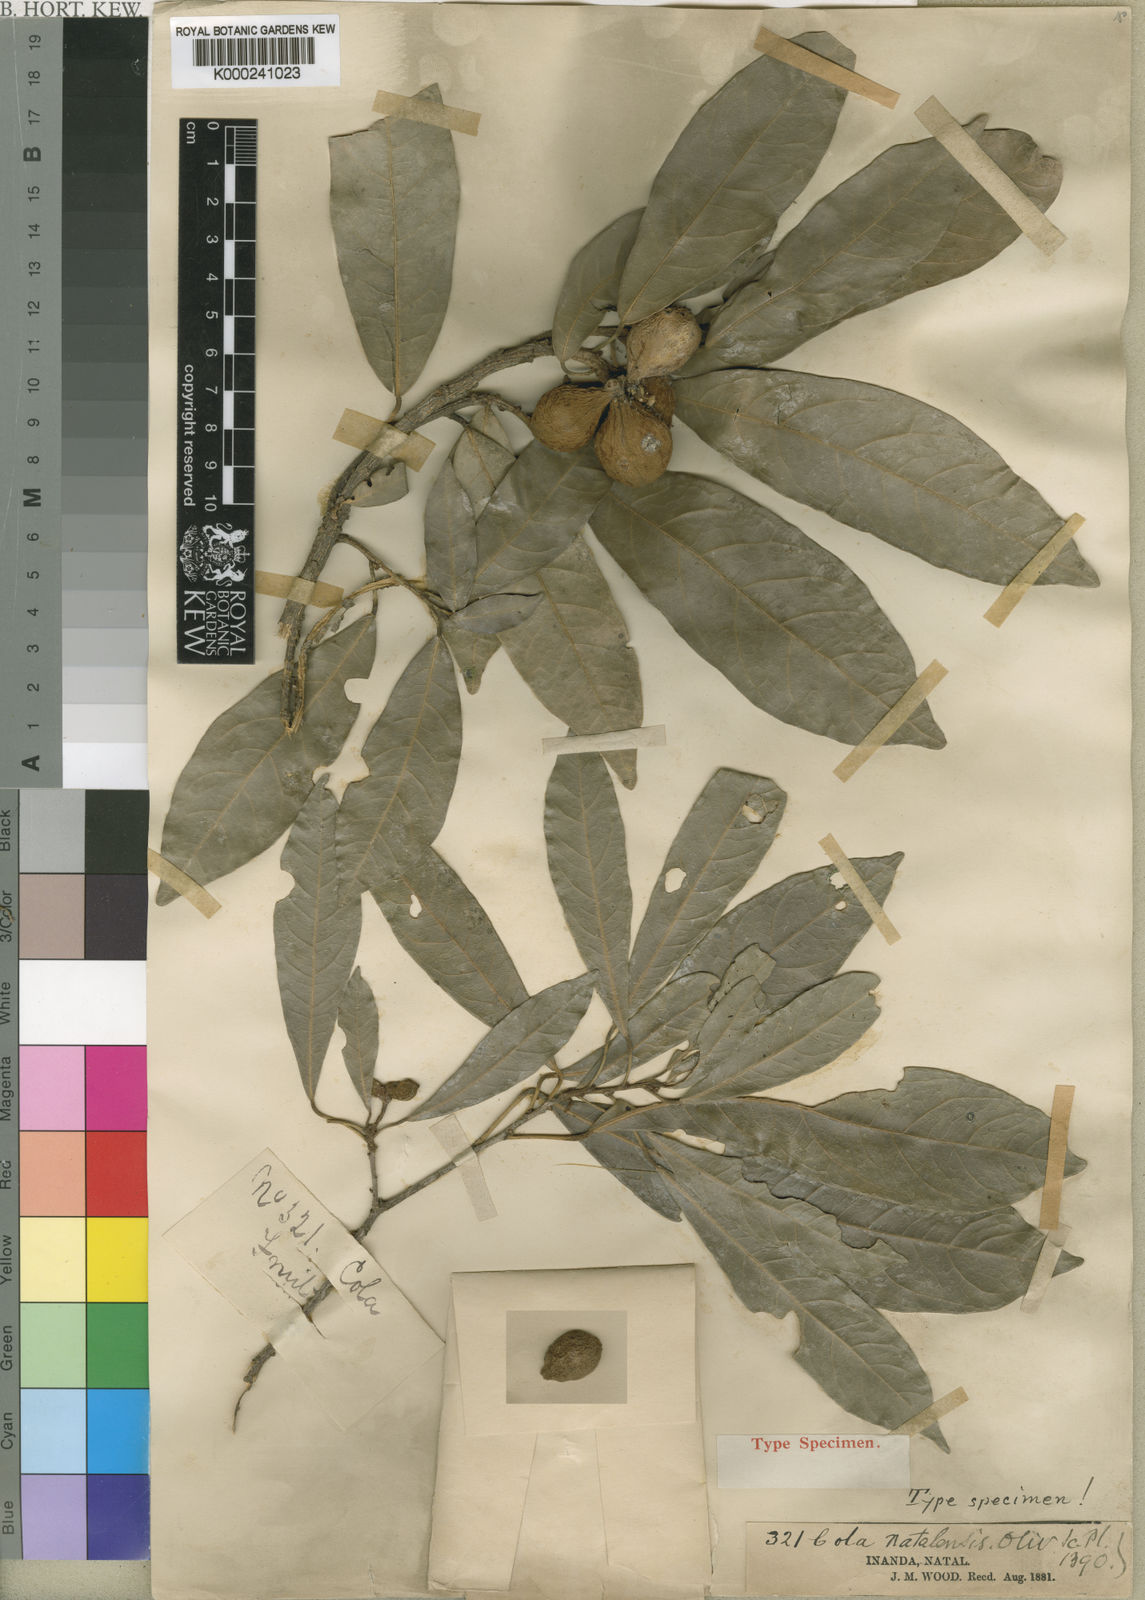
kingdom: Plantae
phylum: Tracheophyta
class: Magnoliopsida
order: Malvales
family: Malvaceae
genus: Cola
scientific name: Cola natalensis
